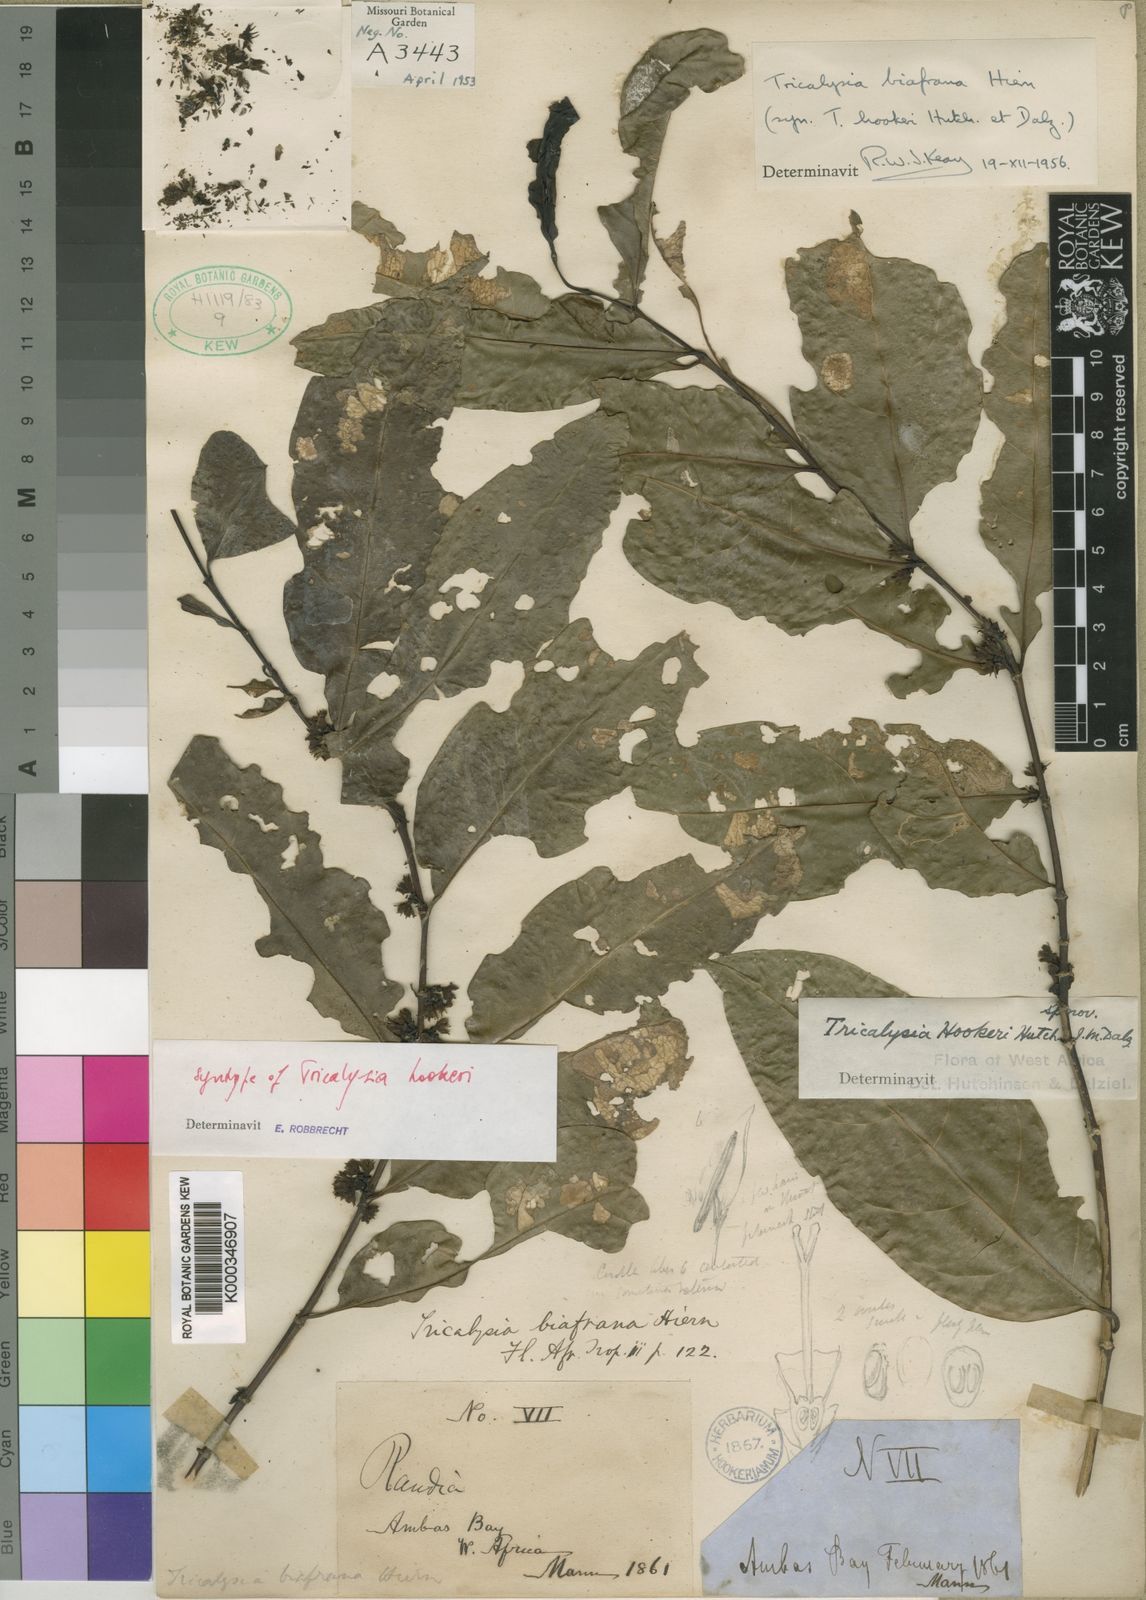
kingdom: Plantae
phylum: Tracheophyta
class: Magnoliopsida
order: Gentianales
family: Rubiaceae
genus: Tricalysia
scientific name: Tricalysia biafrana
